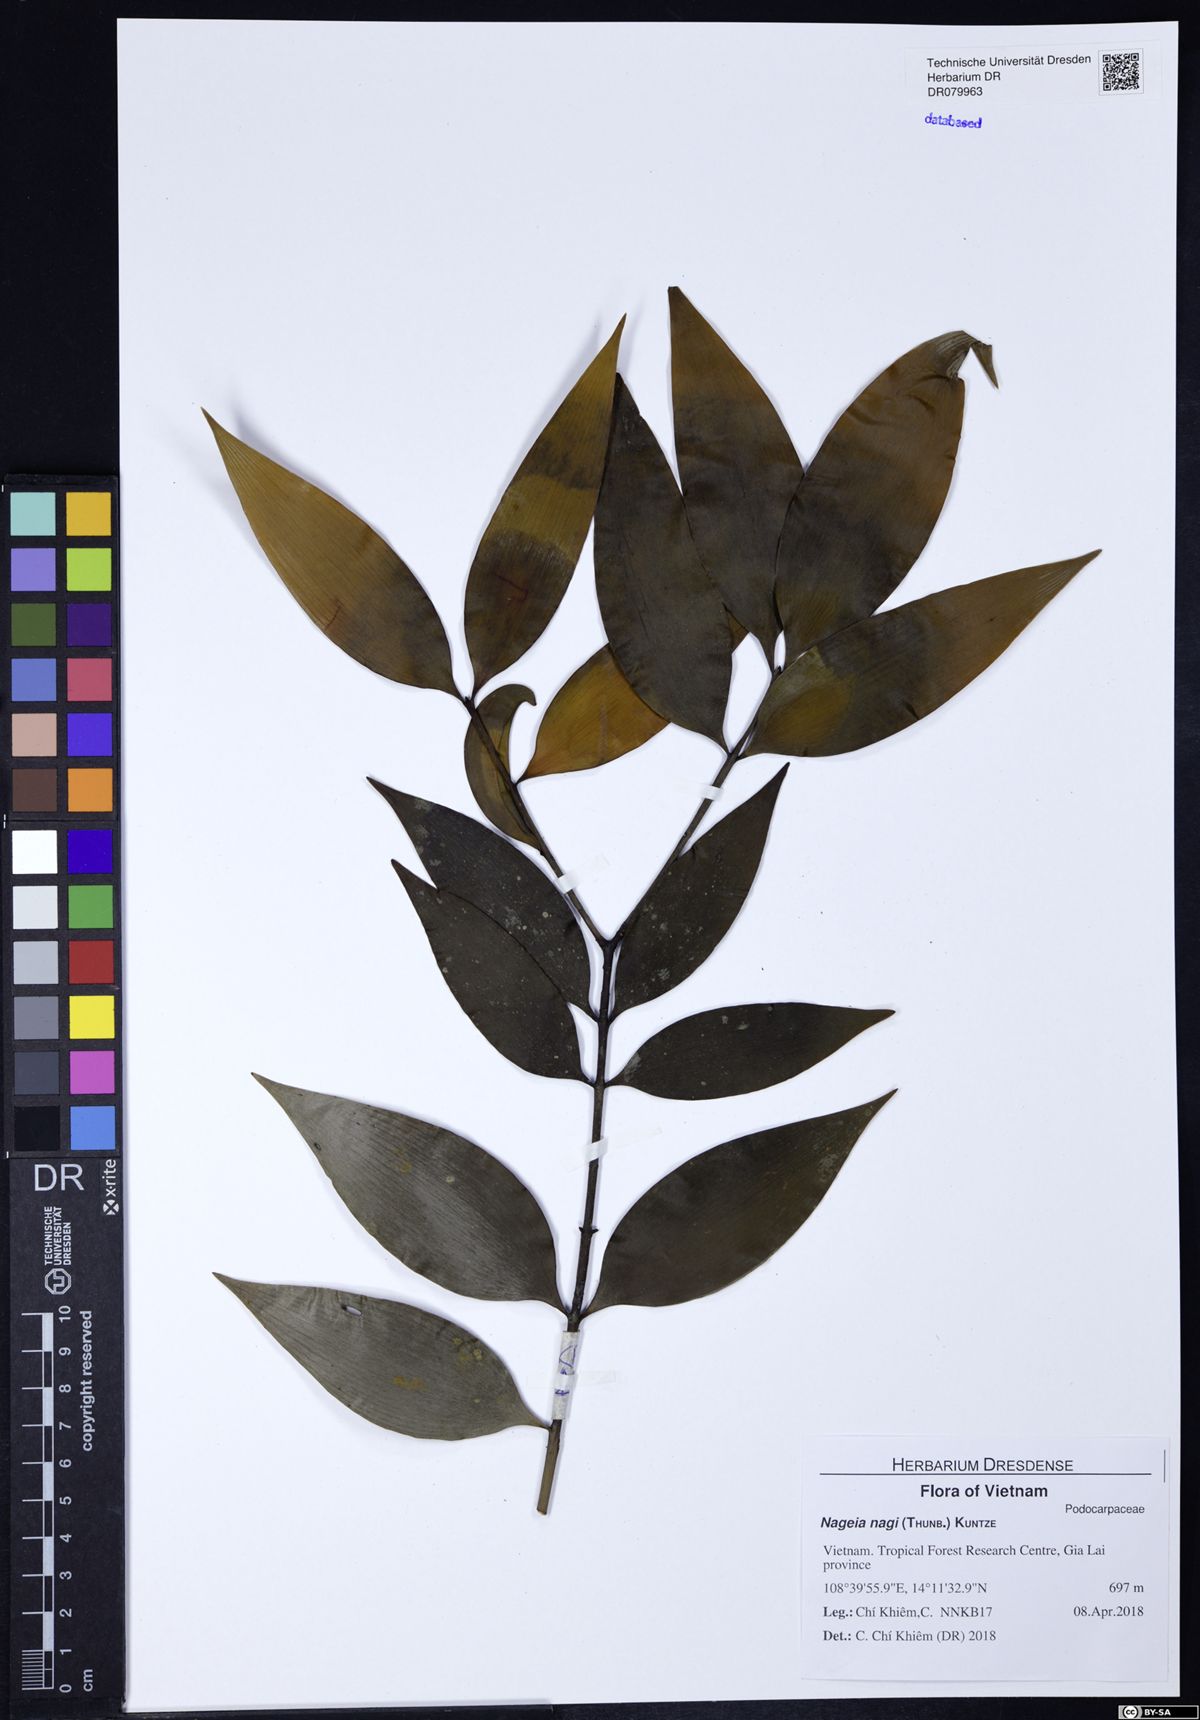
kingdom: Plantae
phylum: Tracheophyta
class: Pinopsida
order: Pinales
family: Podocarpaceae
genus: Nageia
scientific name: Nageia nagi
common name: Kaphal
